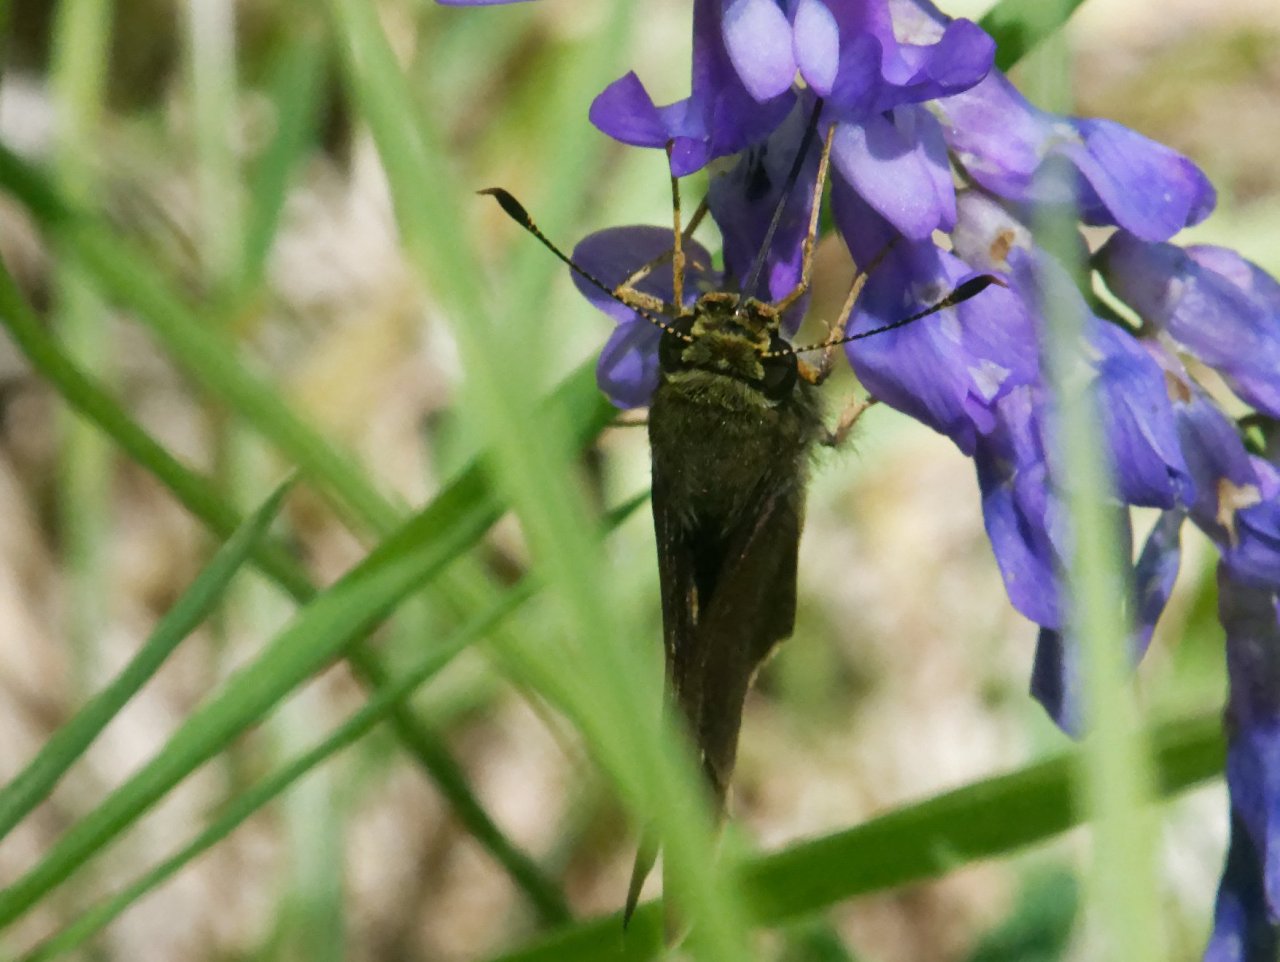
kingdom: Animalia
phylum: Arthropoda
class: Insecta
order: Lepidoptera
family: Hesperiidae
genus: Autochton
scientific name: Autochton
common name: Northern Cloudywing
